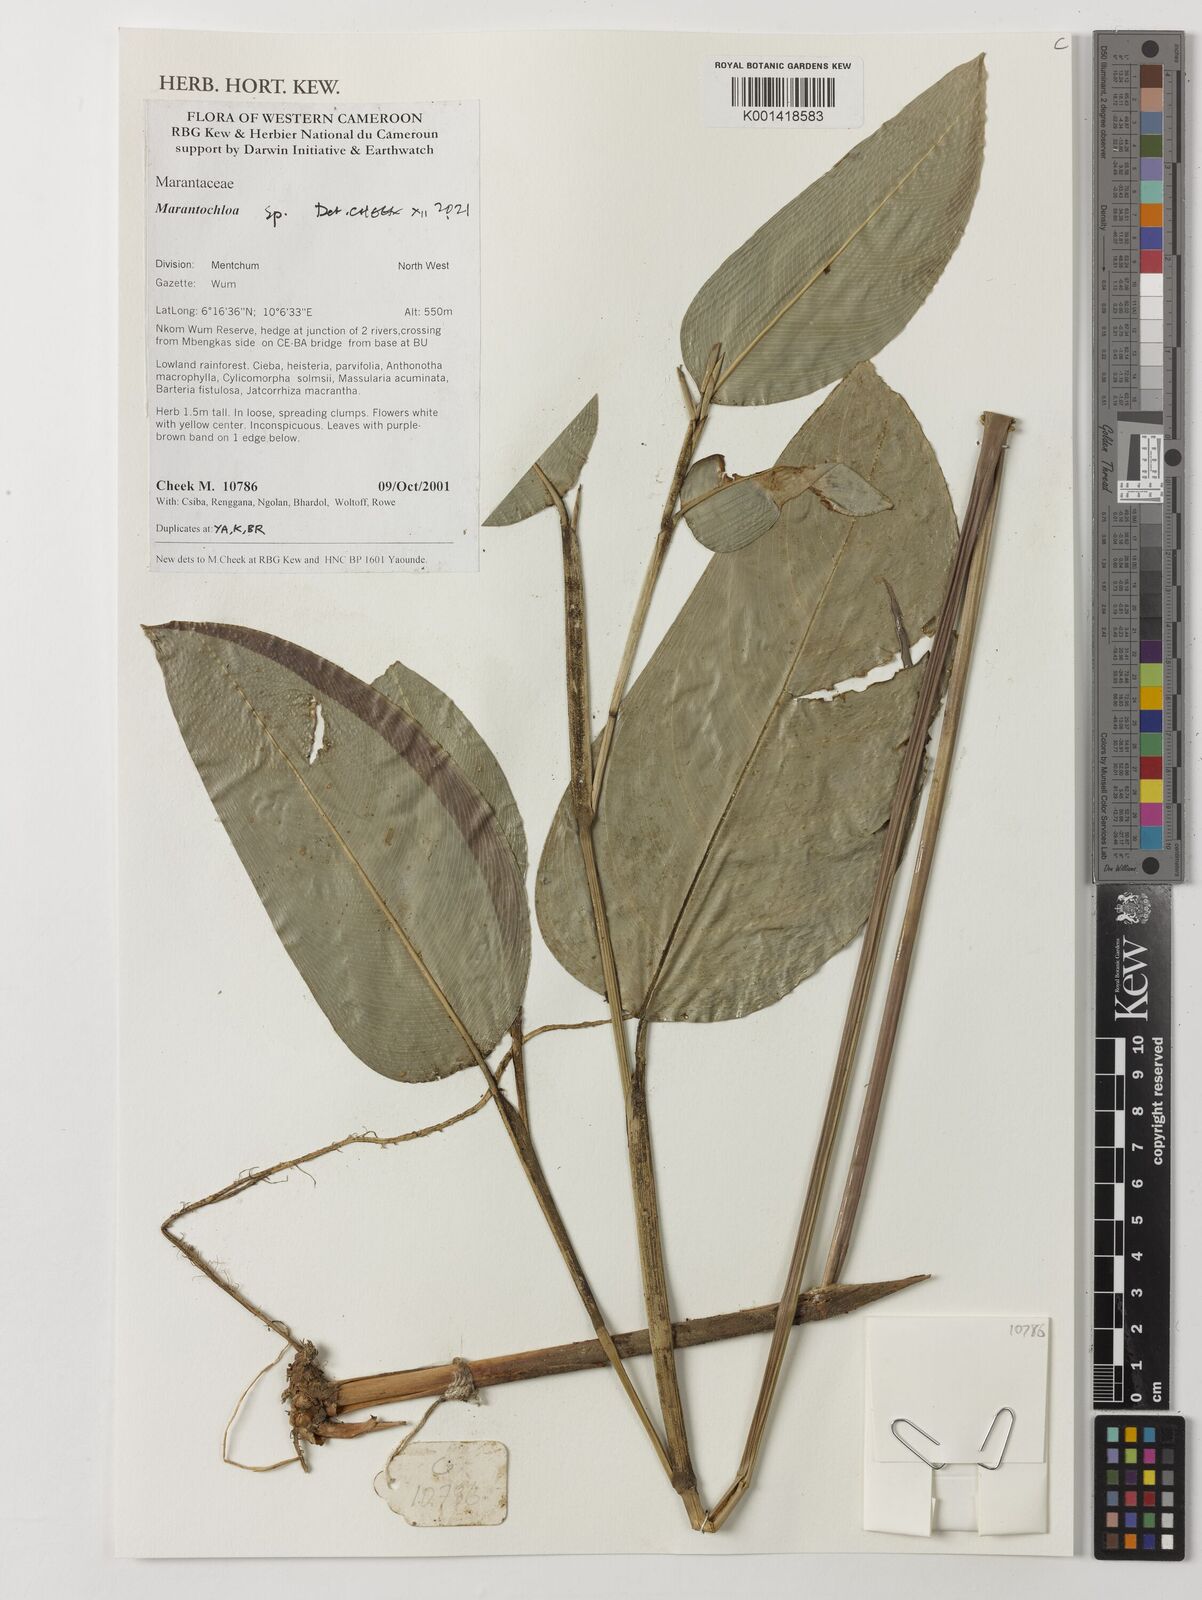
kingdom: Plantae
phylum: Tracheophyta
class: Liliopsida
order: Zingiberales
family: Marantaceae
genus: Marantochloa
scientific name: Marantochloa
